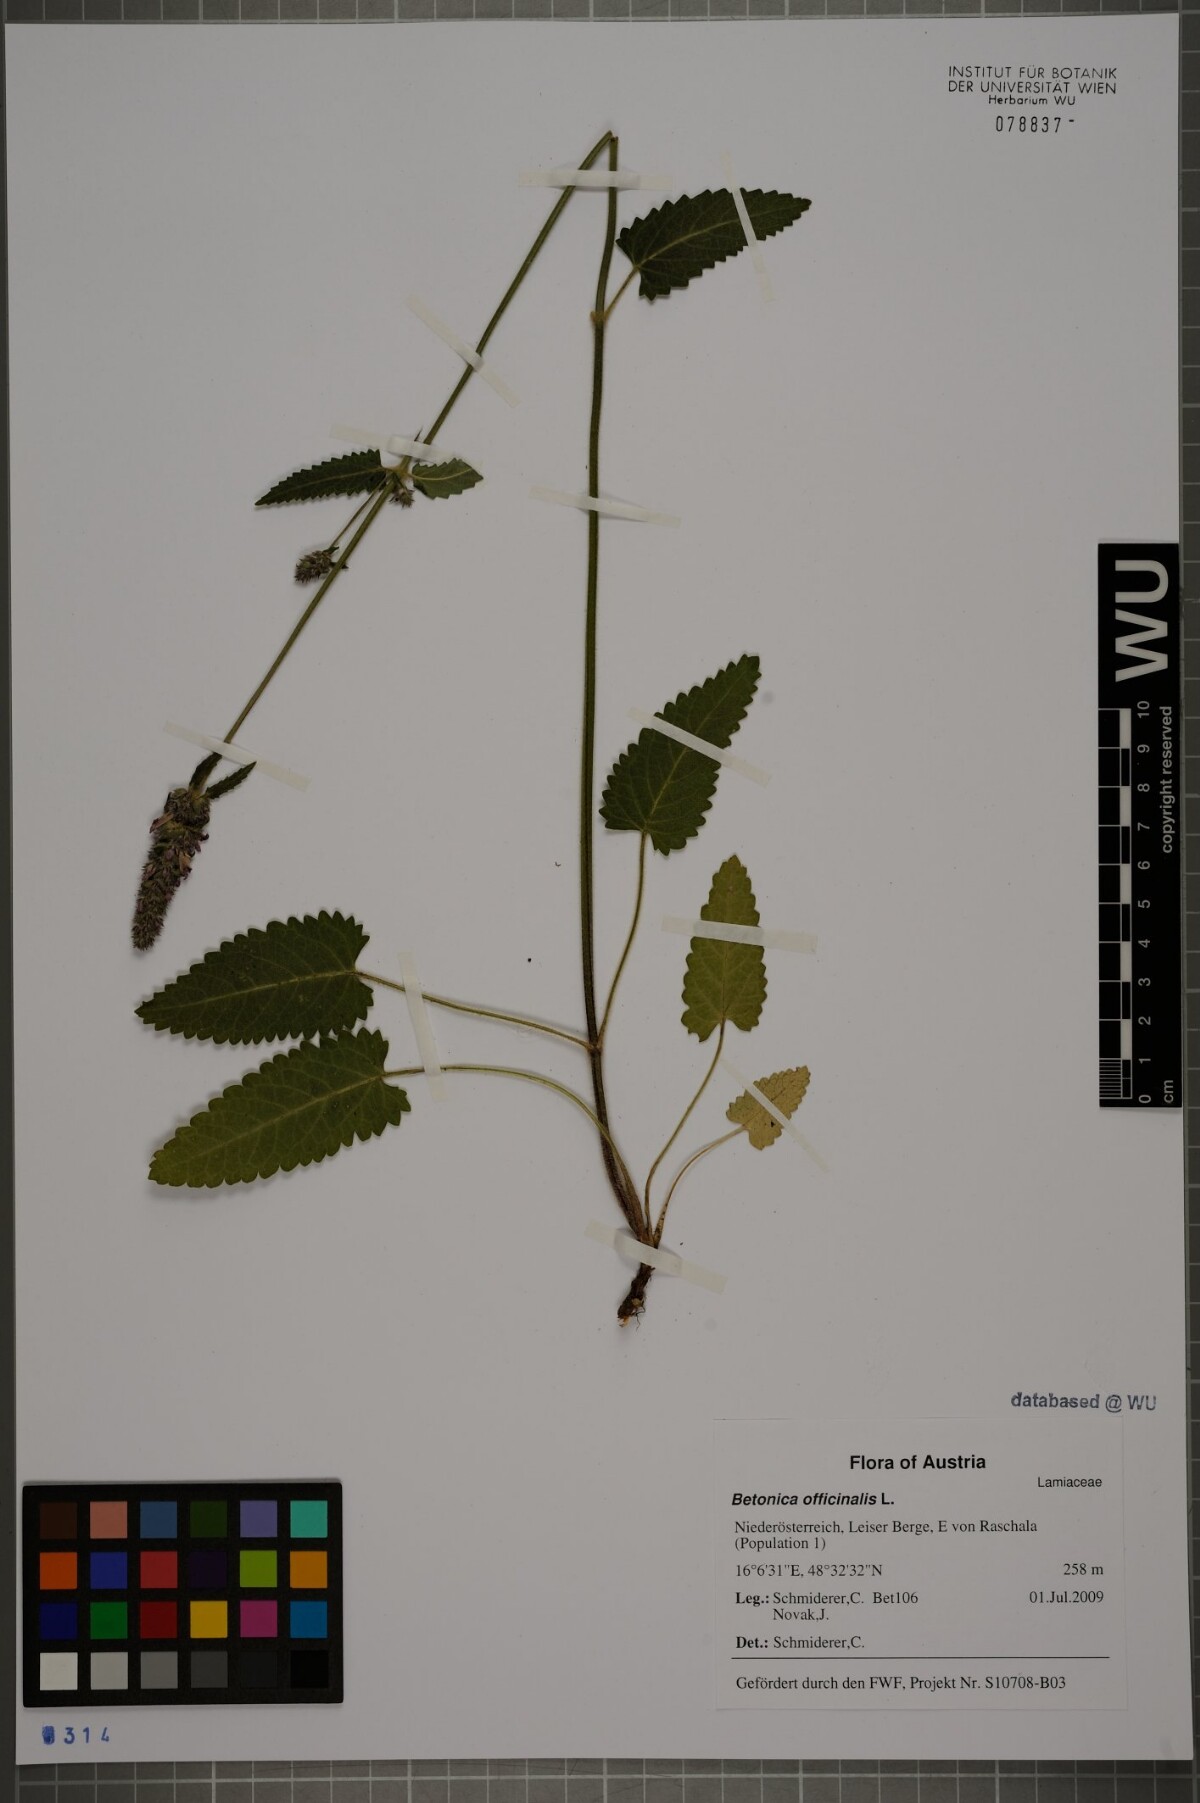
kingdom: Plantae
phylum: Tracheophyta
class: Magnoliopsida
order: Lamiales
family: Lamiaceae
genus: Betonica
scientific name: Betonica officinalis
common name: Bishop's-wort
